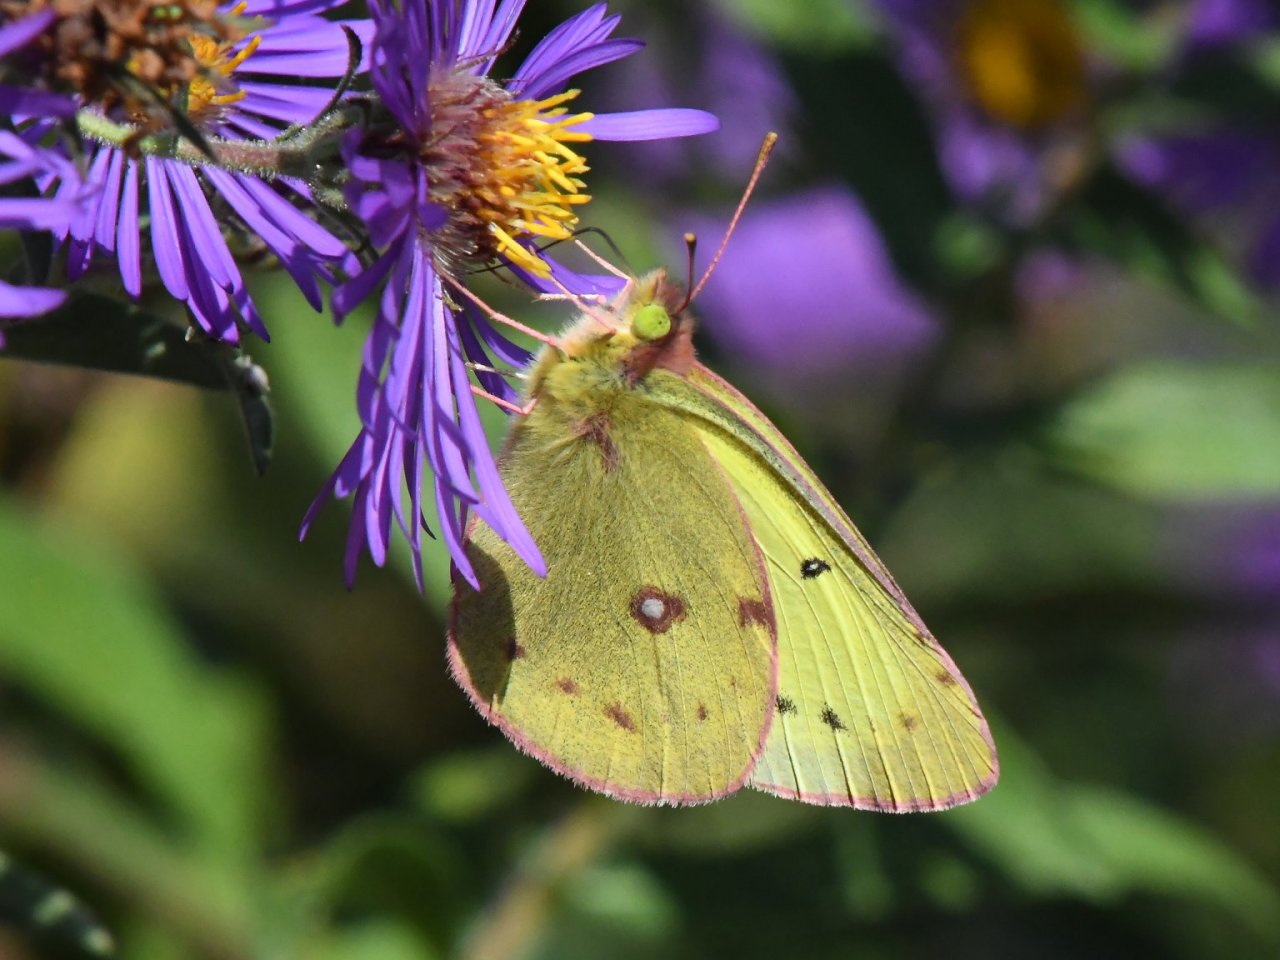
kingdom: Animalia
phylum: Arthropoda
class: Insecta
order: Lepidoptera
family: Pieridae
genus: Colias
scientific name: Colias philodice
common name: Clouded Sulphur
